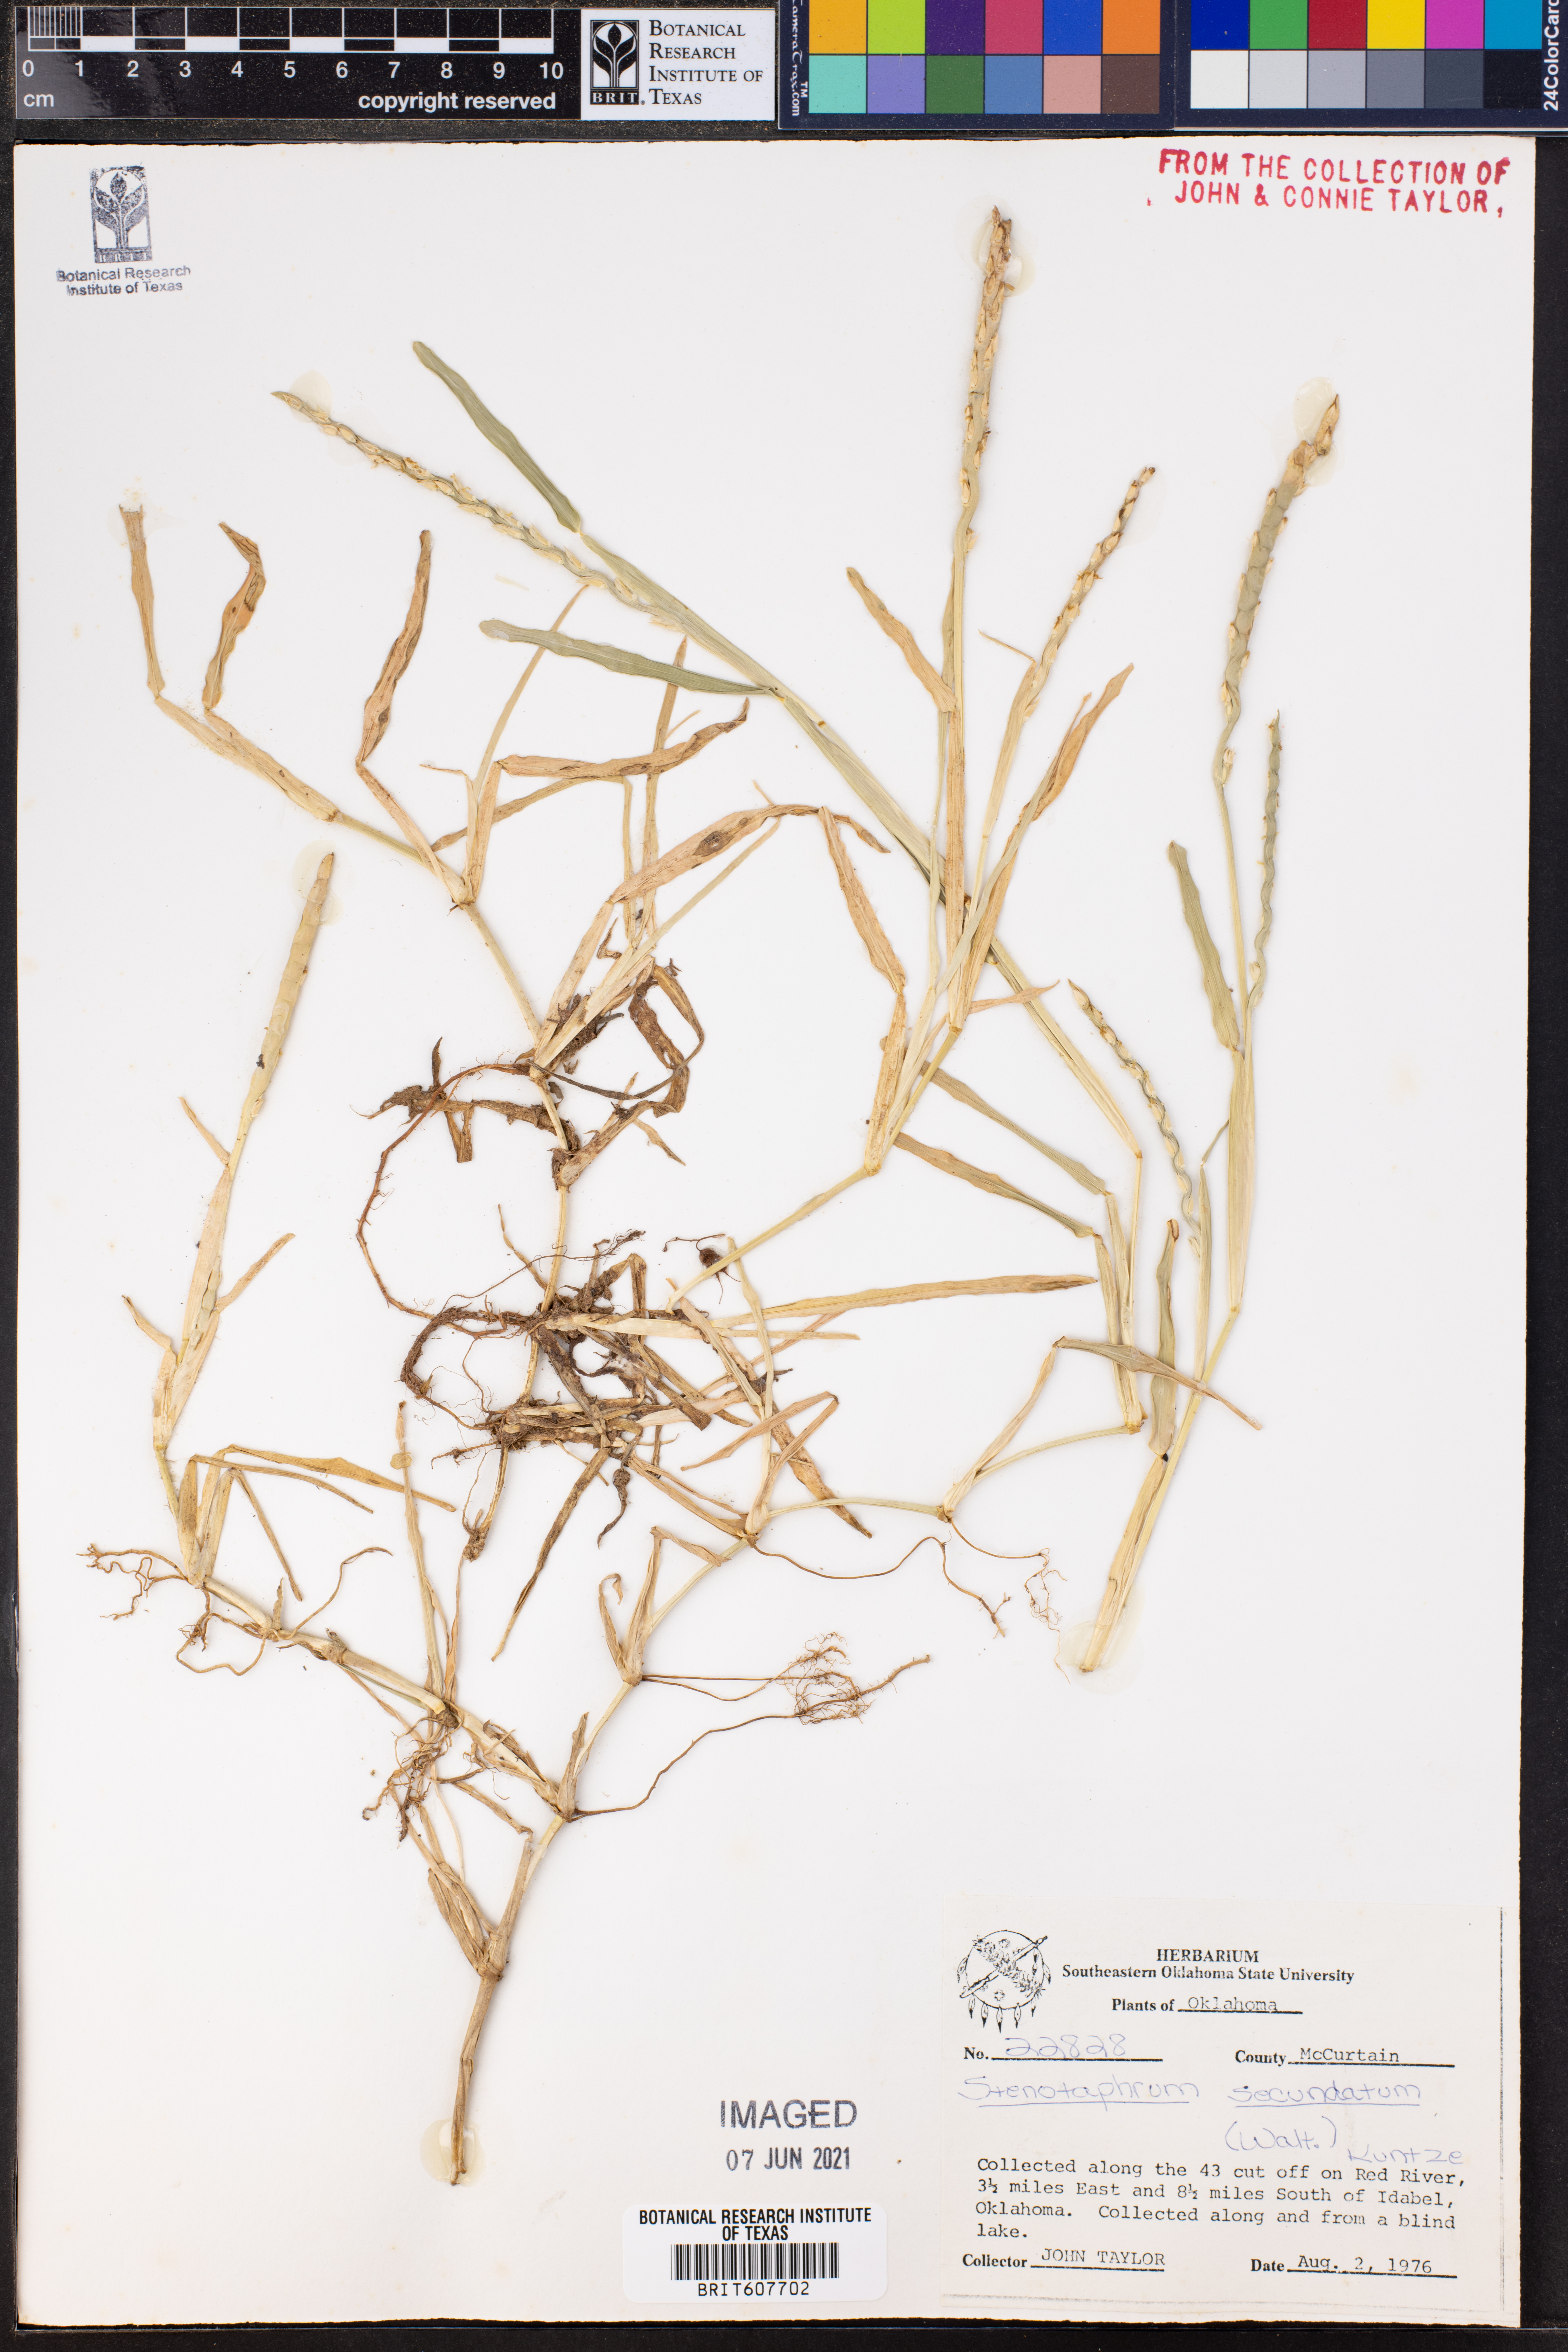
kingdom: Plantae
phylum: Tracheophyta
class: Liliopsida
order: Poales
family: Poaceae
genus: Stenotaphrum
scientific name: Stenotaphrum secundatum
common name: St. augustine grass
